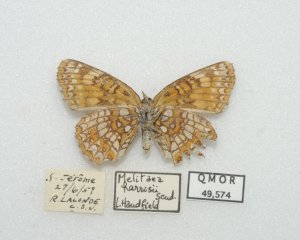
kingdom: Animalia
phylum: Arthropoda
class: Insecta
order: Lepidoptera
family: Nymphalidae
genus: Chlosyne
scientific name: Chlosyne harrisii
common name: Harris's Checkerspot
